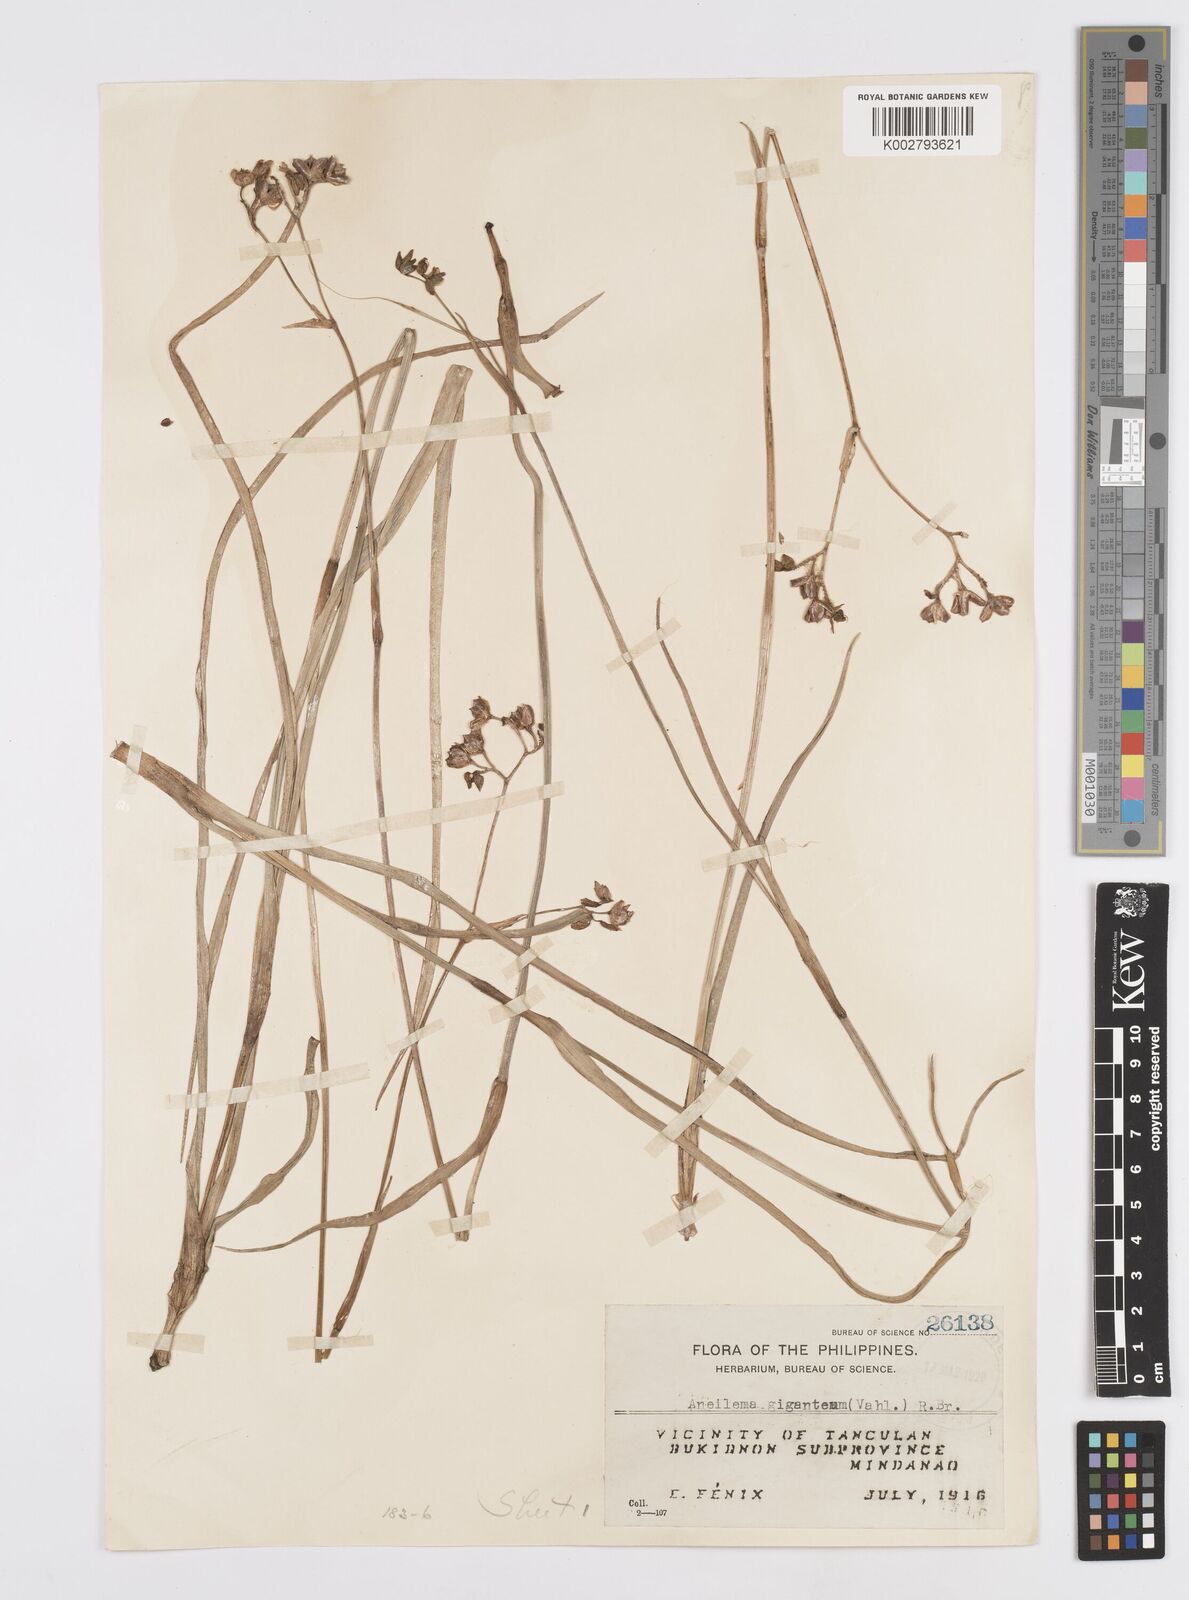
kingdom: Plantae
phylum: Tracheophyta
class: Liliopsida
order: Commelinales
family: Commelinaceae
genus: Murdannia
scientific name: Murdannia gigantea
